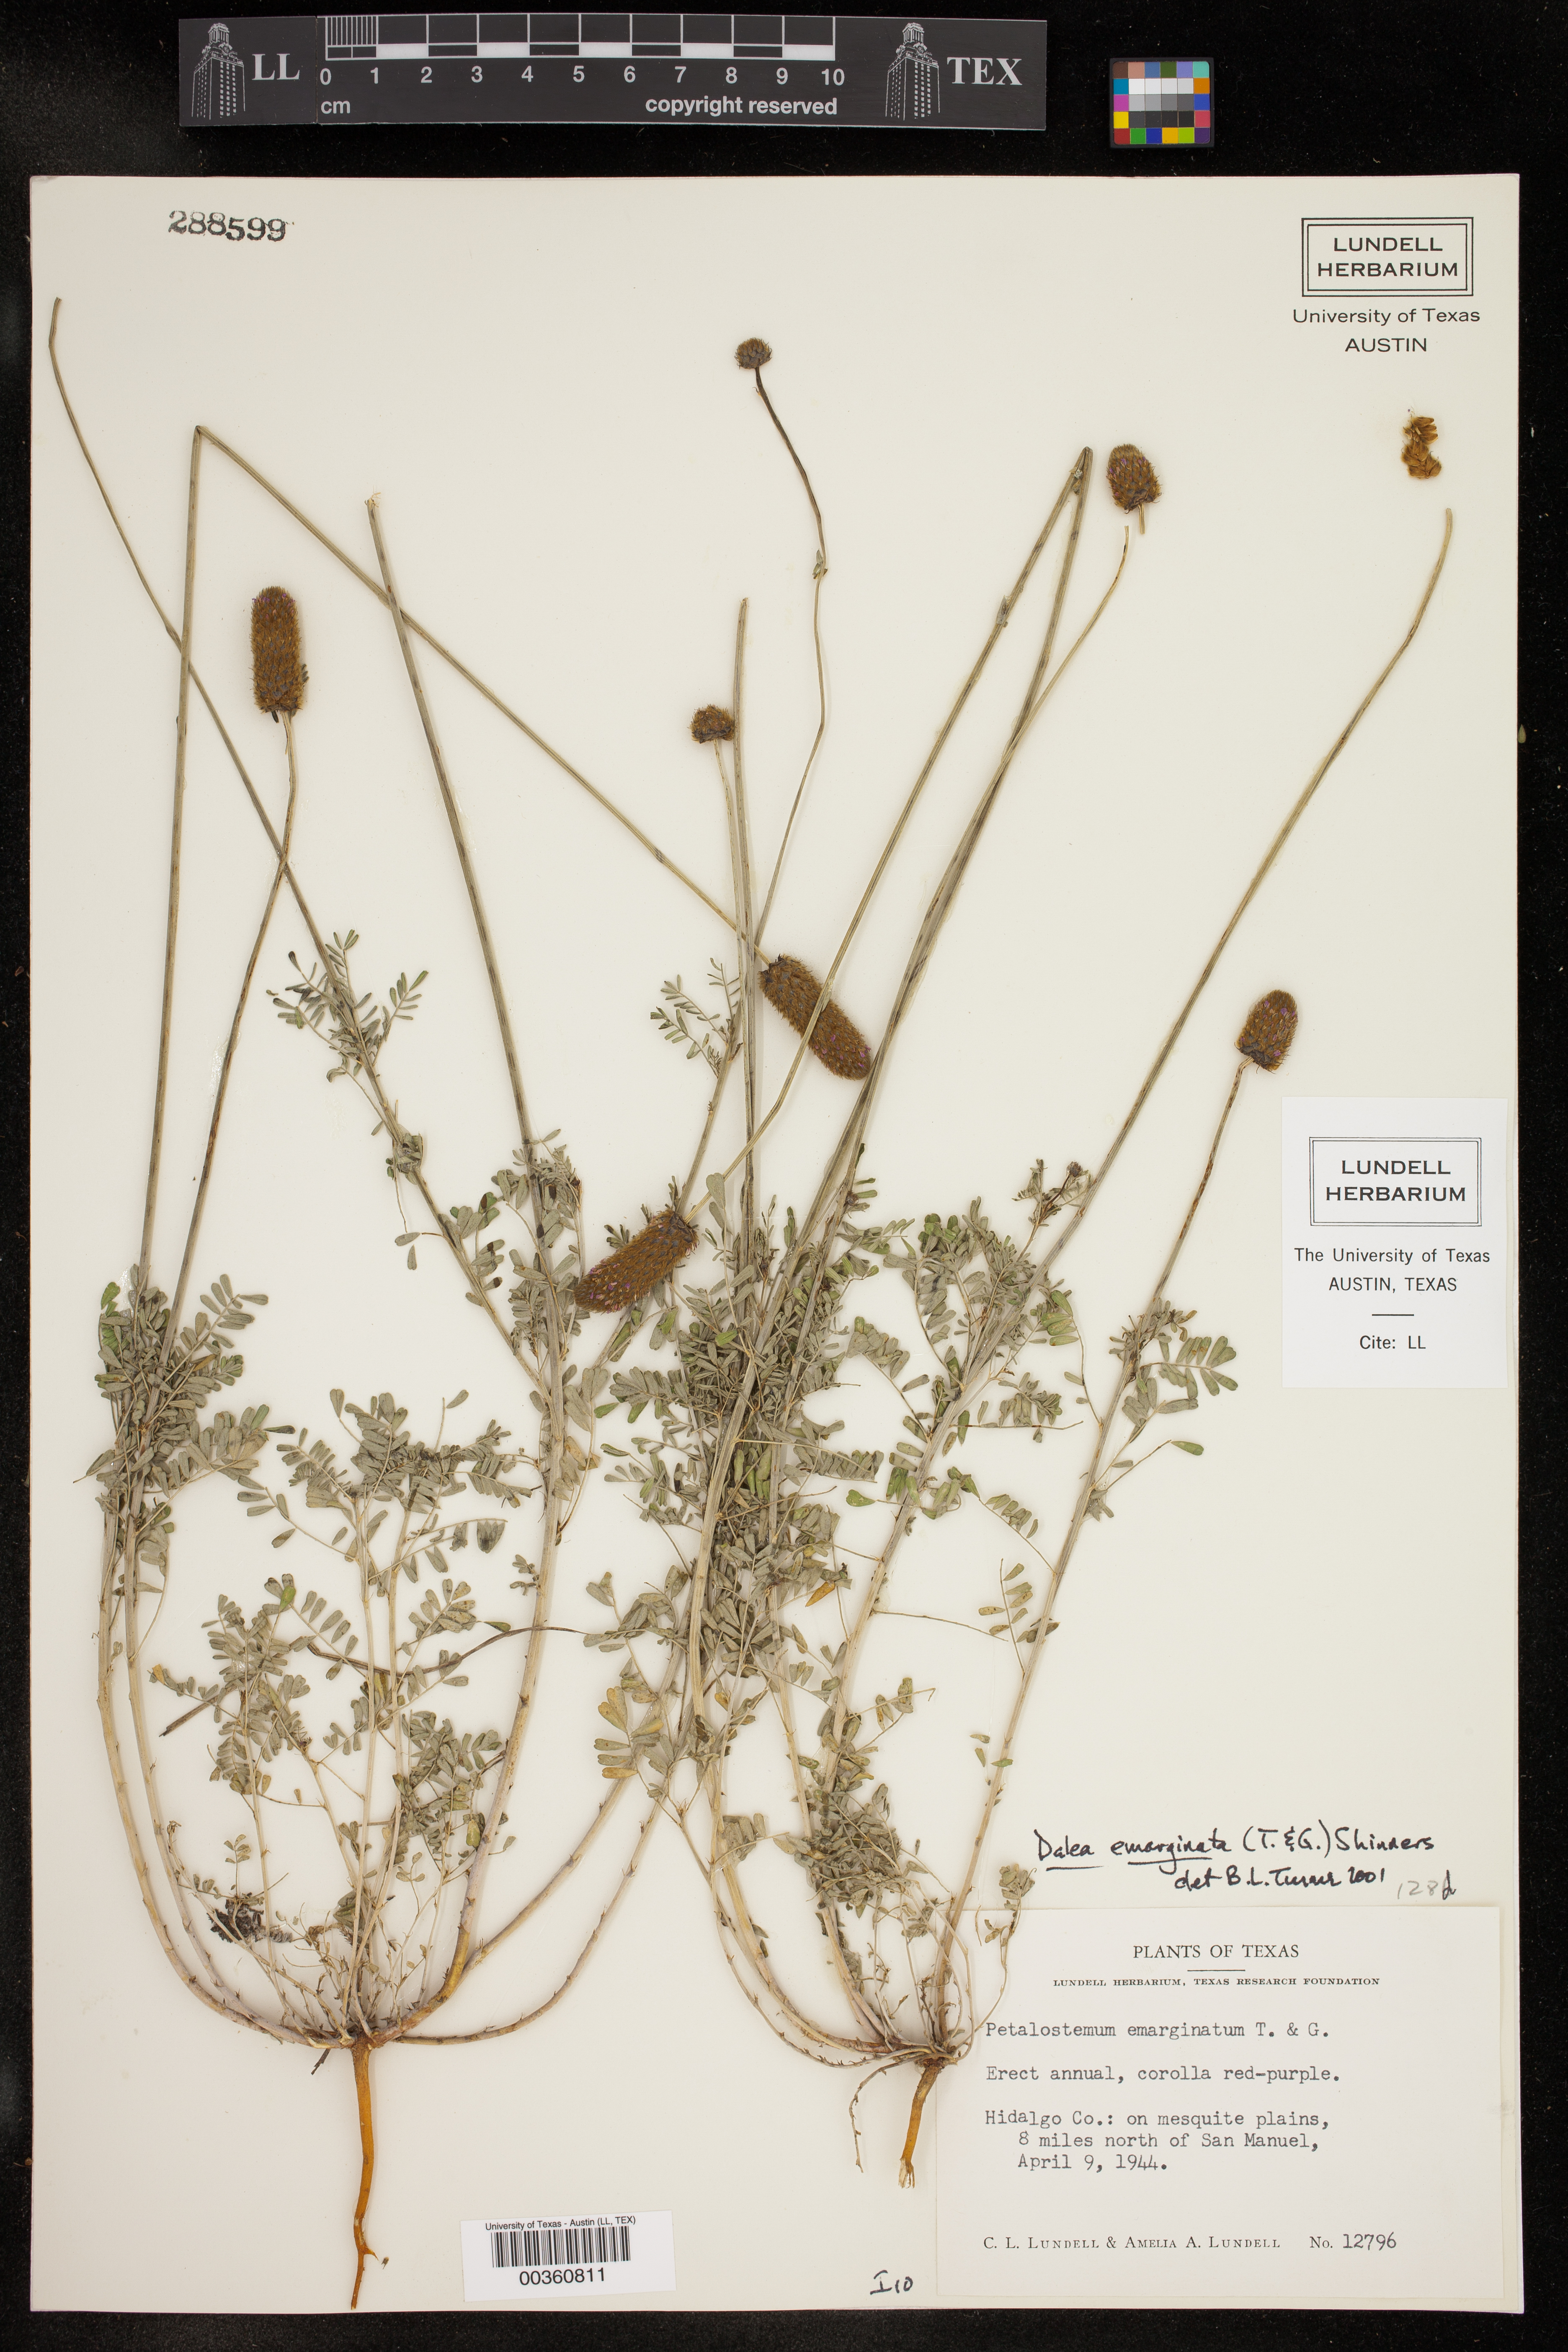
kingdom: Plantae
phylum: Tracheophyta
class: Magnoliopsida
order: Fabales
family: Fabaceae
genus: Dalea
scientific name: Dalea emarginata
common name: Wedgeleaf prairie clover
